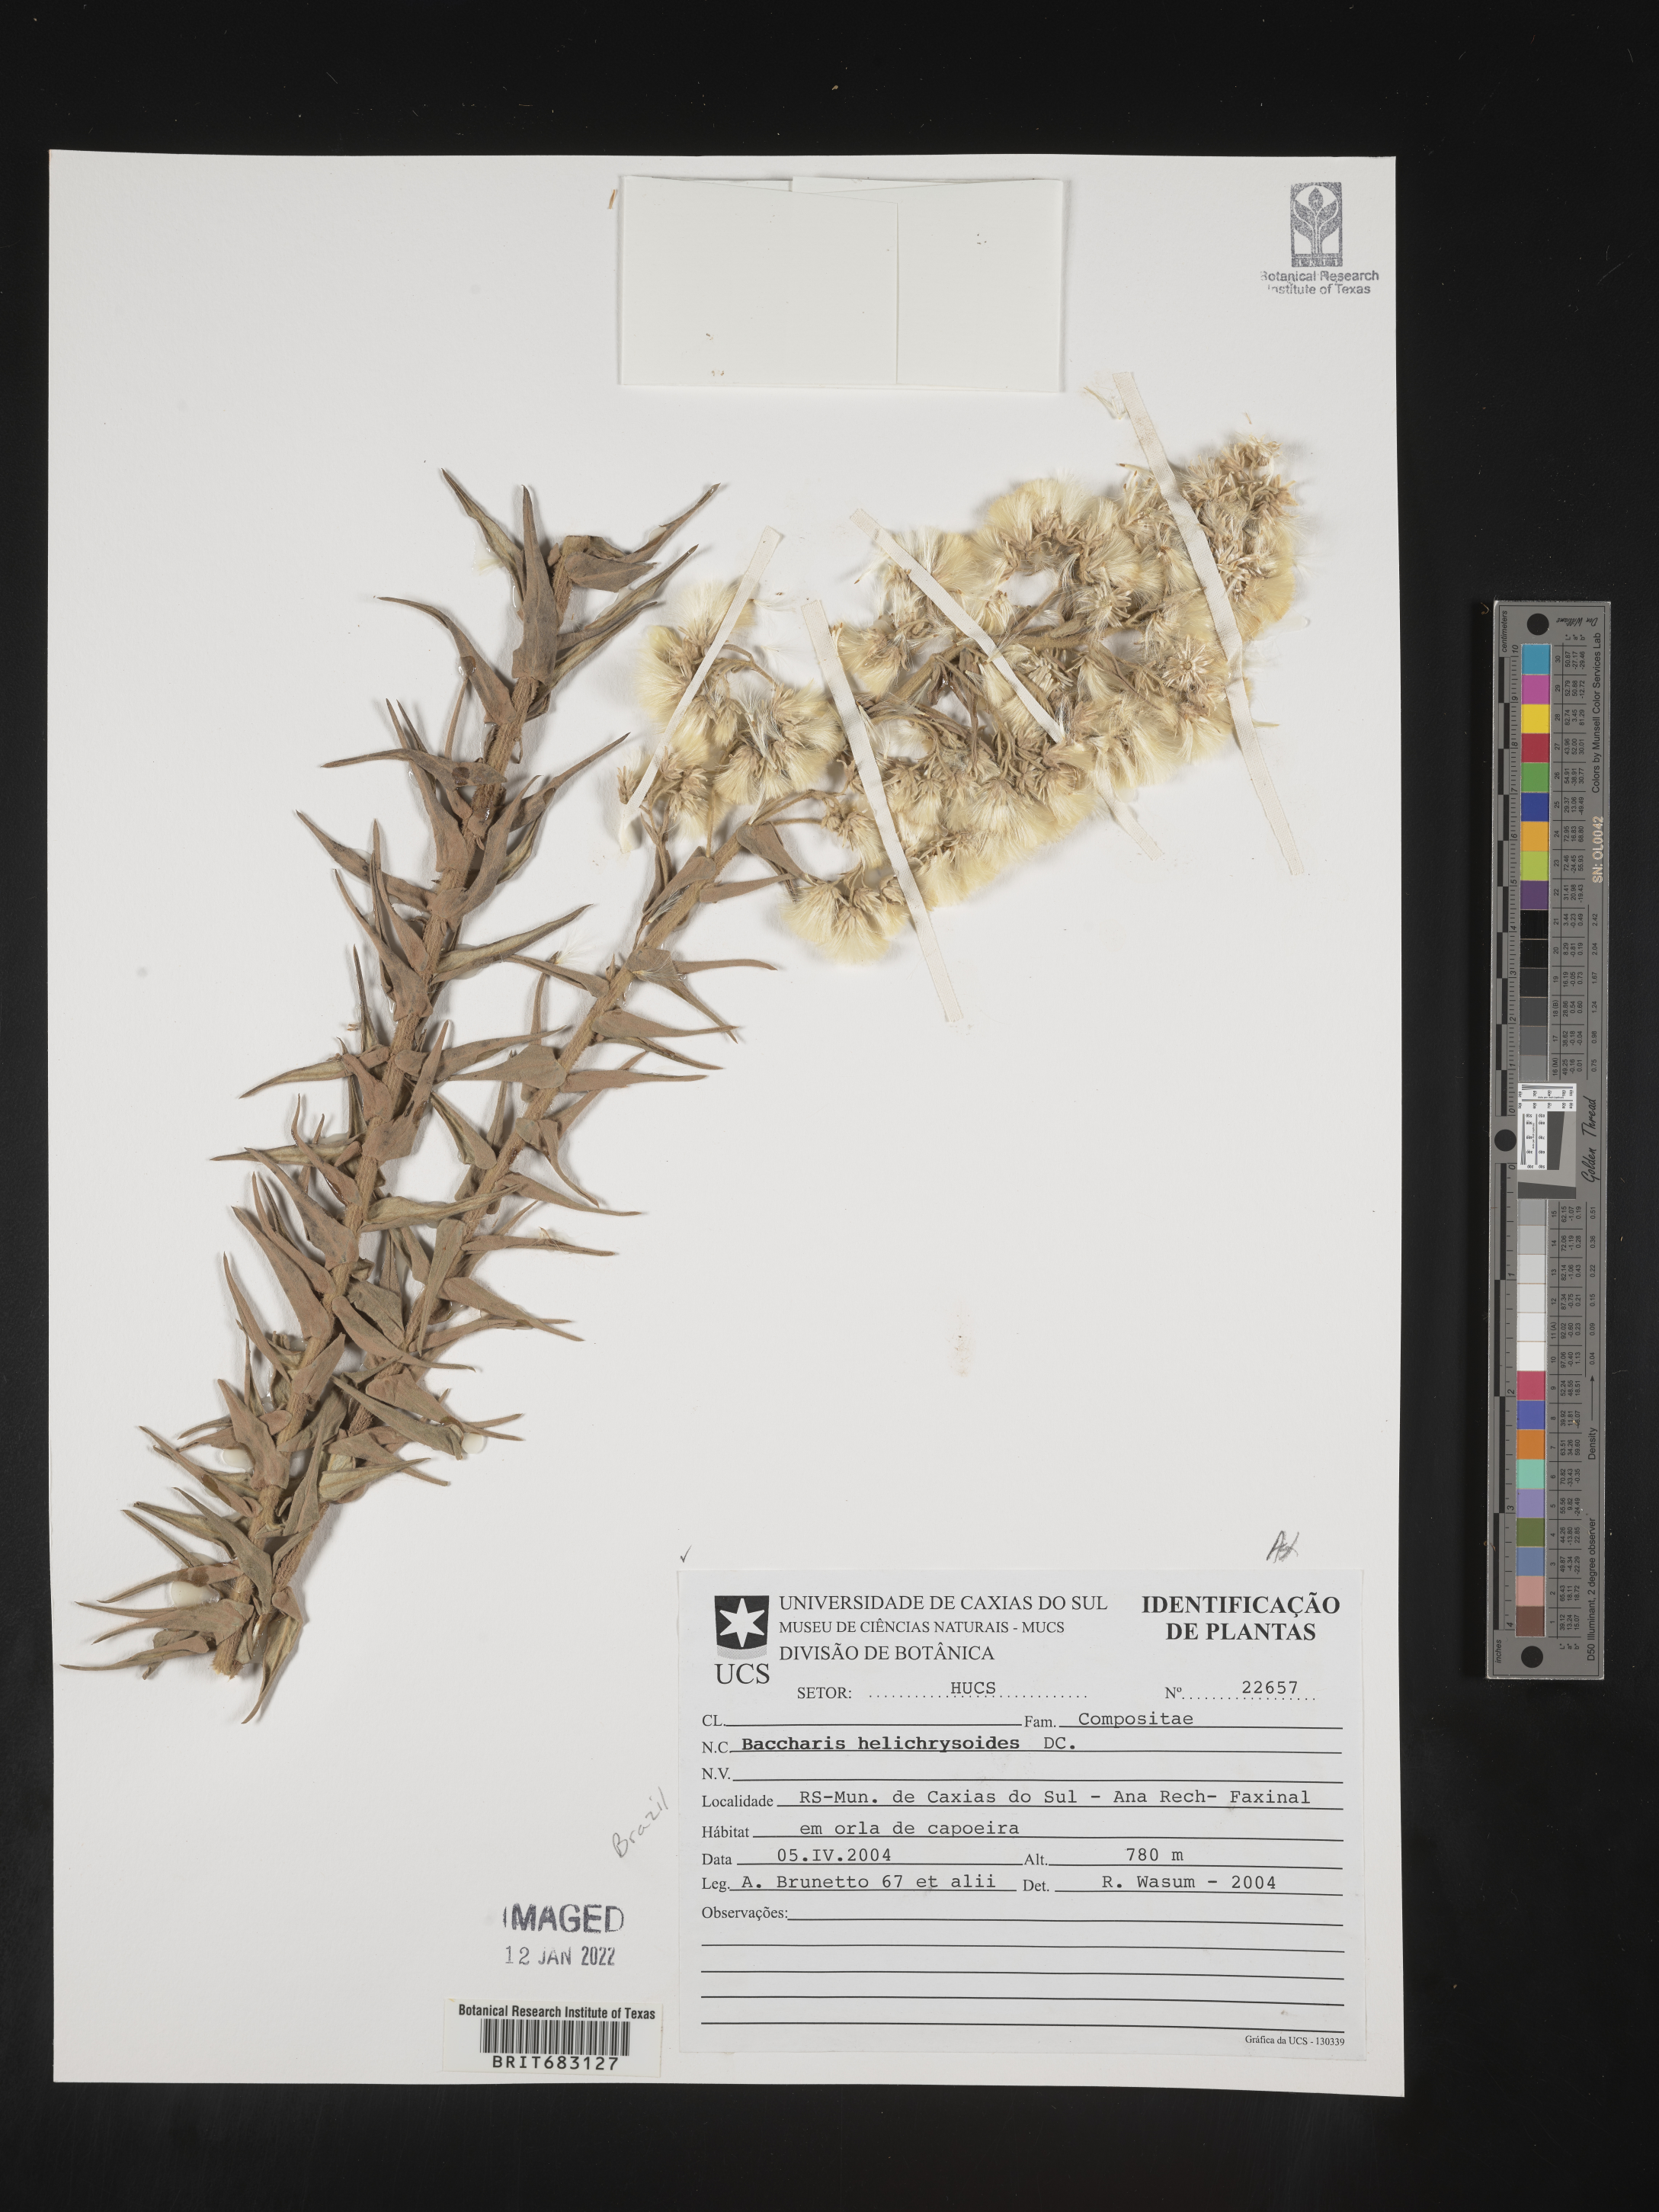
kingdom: Plantae
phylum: Tracheophyta
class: Magnoliopsida
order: Asterales
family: Asteraceae
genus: Baccharis
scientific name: Baccharis
